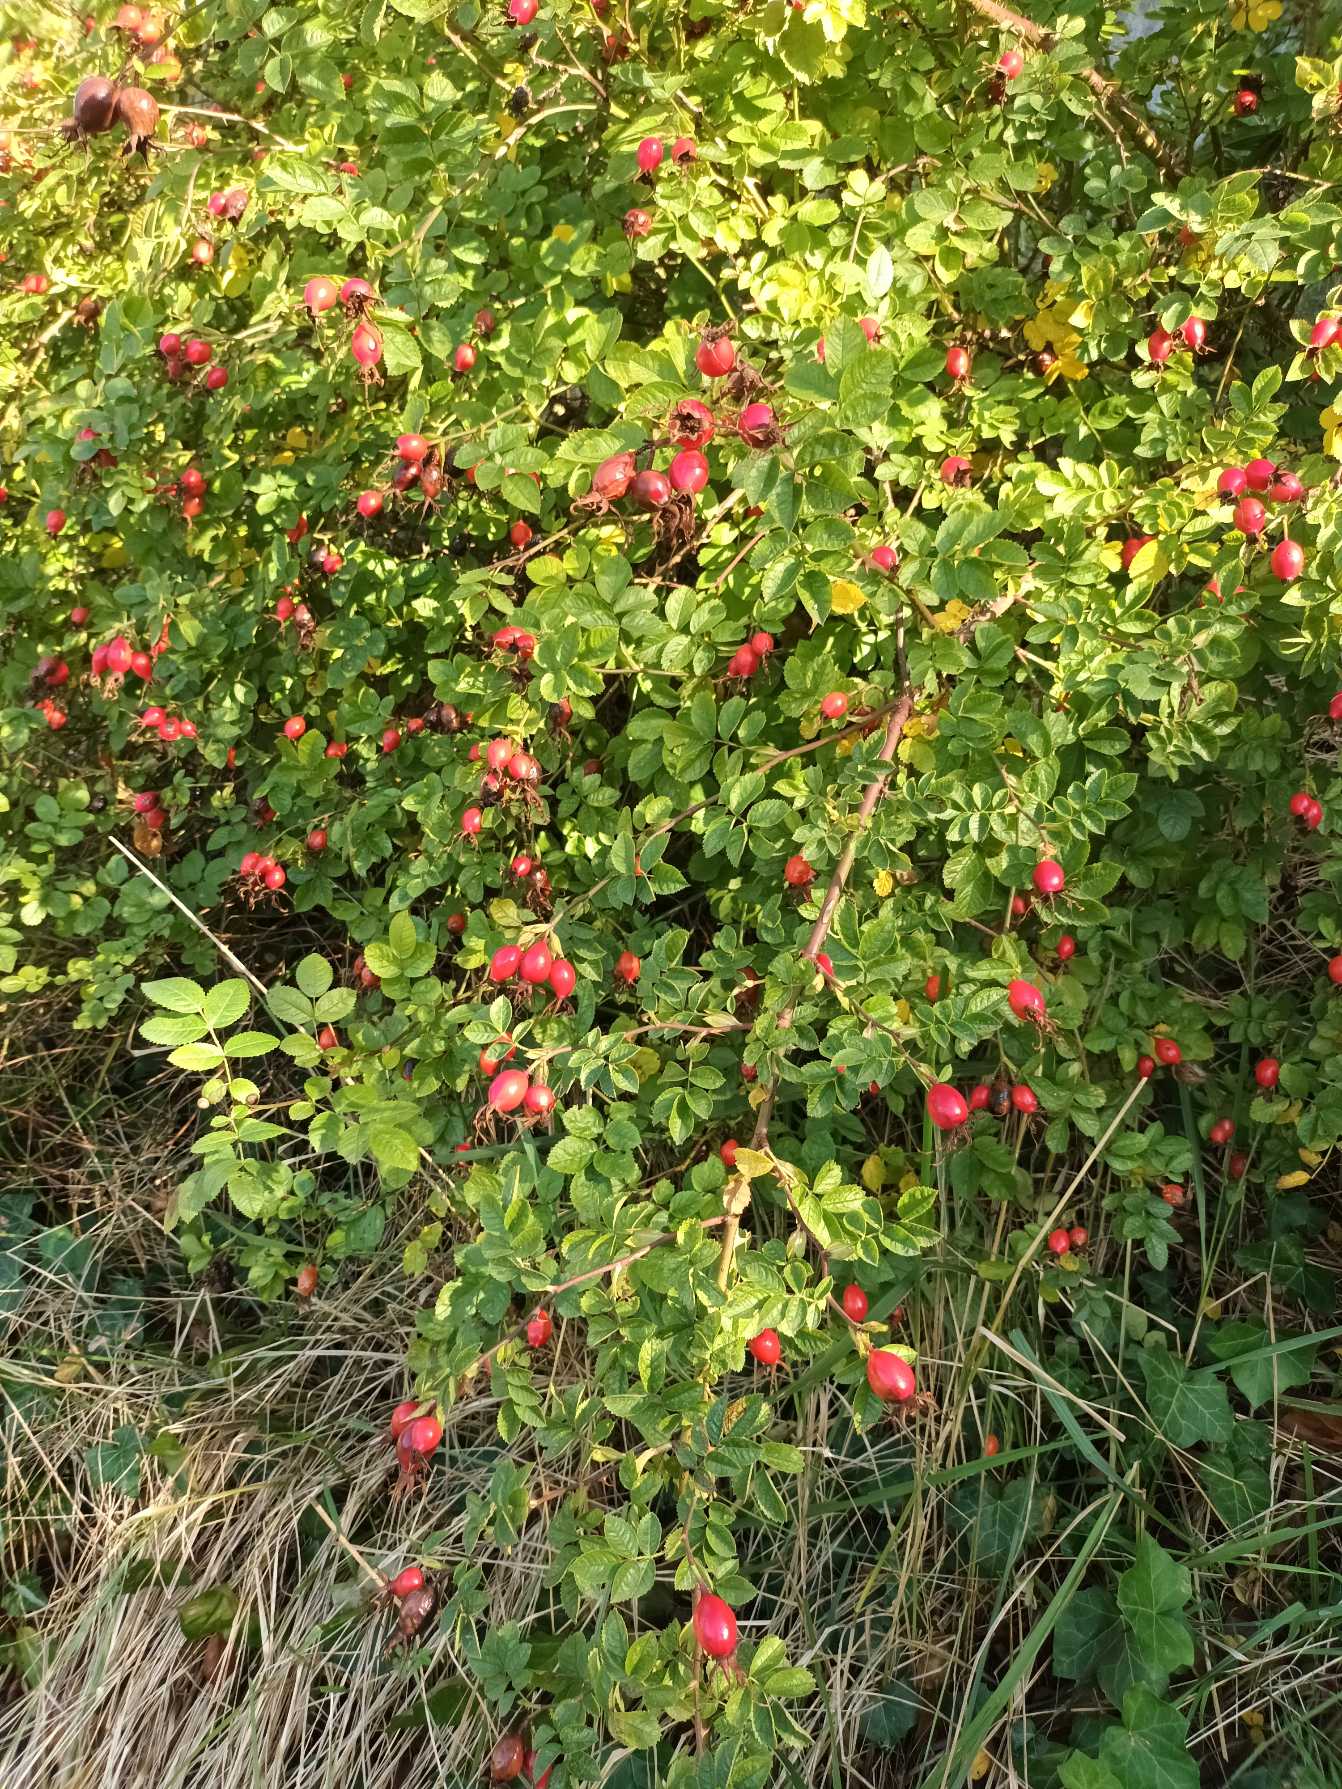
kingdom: Plantae
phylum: Tracheophyta
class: Magnoliopsida
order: Rosales
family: Rosaceae
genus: Rosa
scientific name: Rosa rubiginosa
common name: Æble-rose
